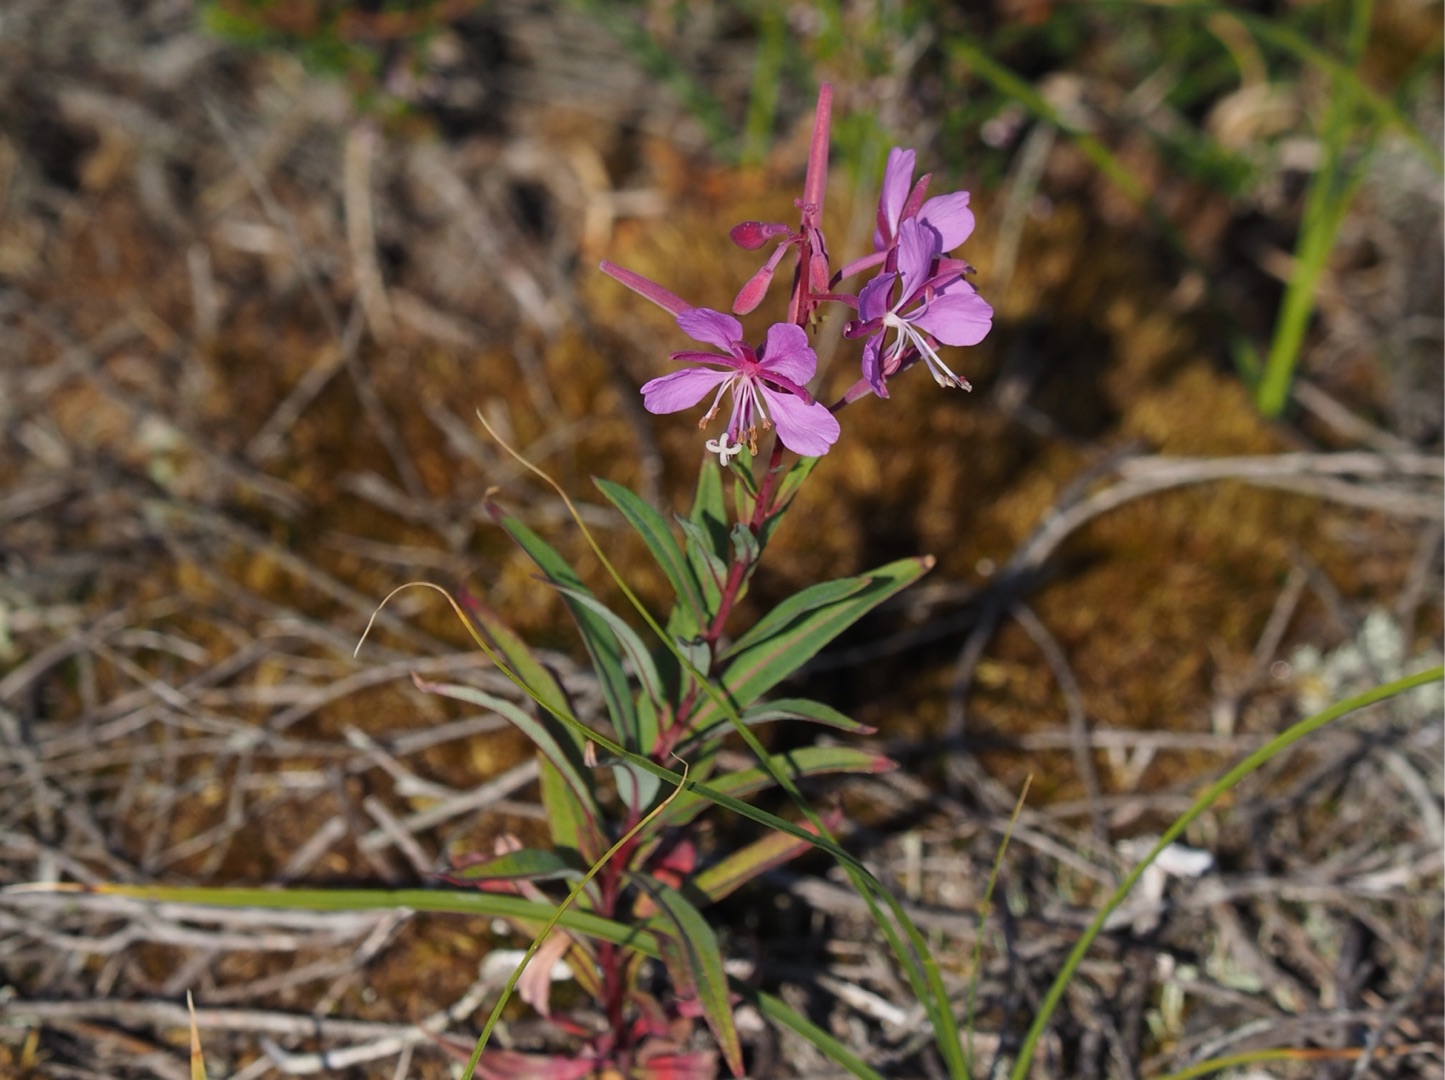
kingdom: Plantae
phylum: Tracheophyta
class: Magnoliopsida
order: Myrtales
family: Onagraceae
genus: Chamaenerion
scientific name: Chamaenerion angustifolium
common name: Gederams
